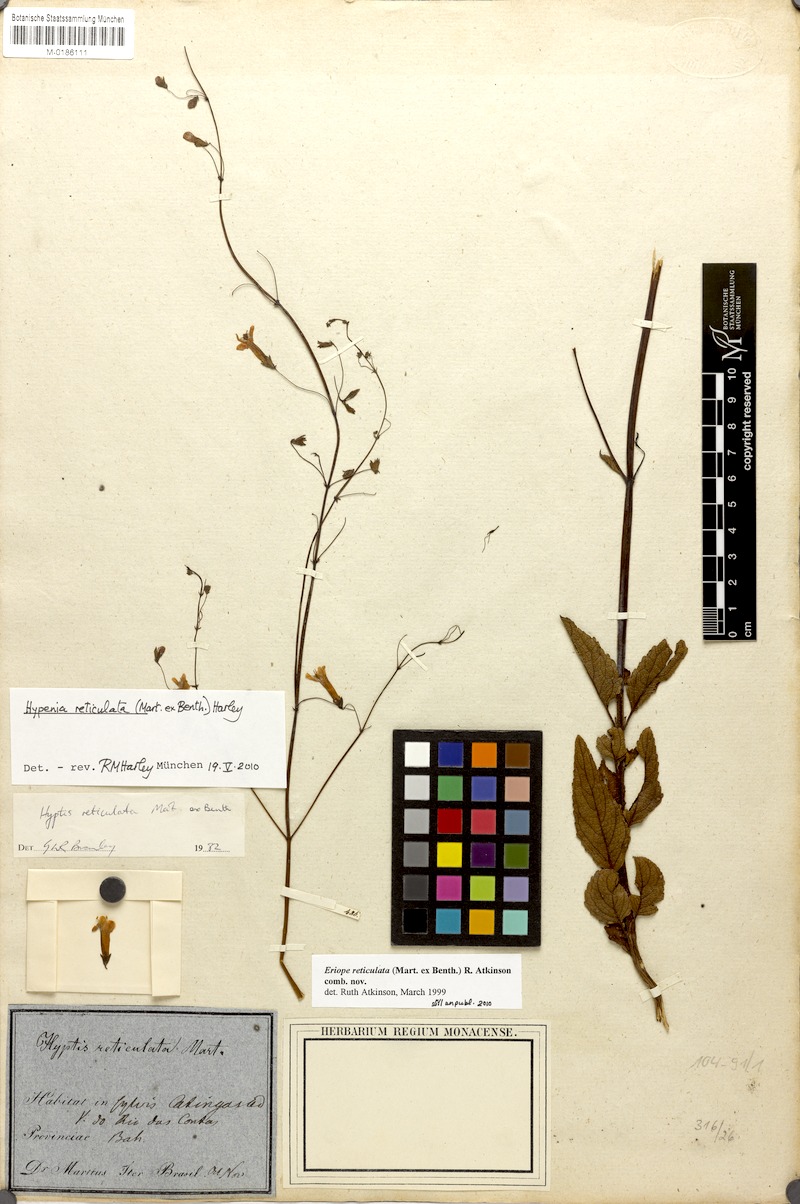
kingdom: Plantae
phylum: Tracheophyta
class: Magnoliopsida
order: Lamiales
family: Lamiaceae
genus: Hypenia
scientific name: Hypenia reticulata
